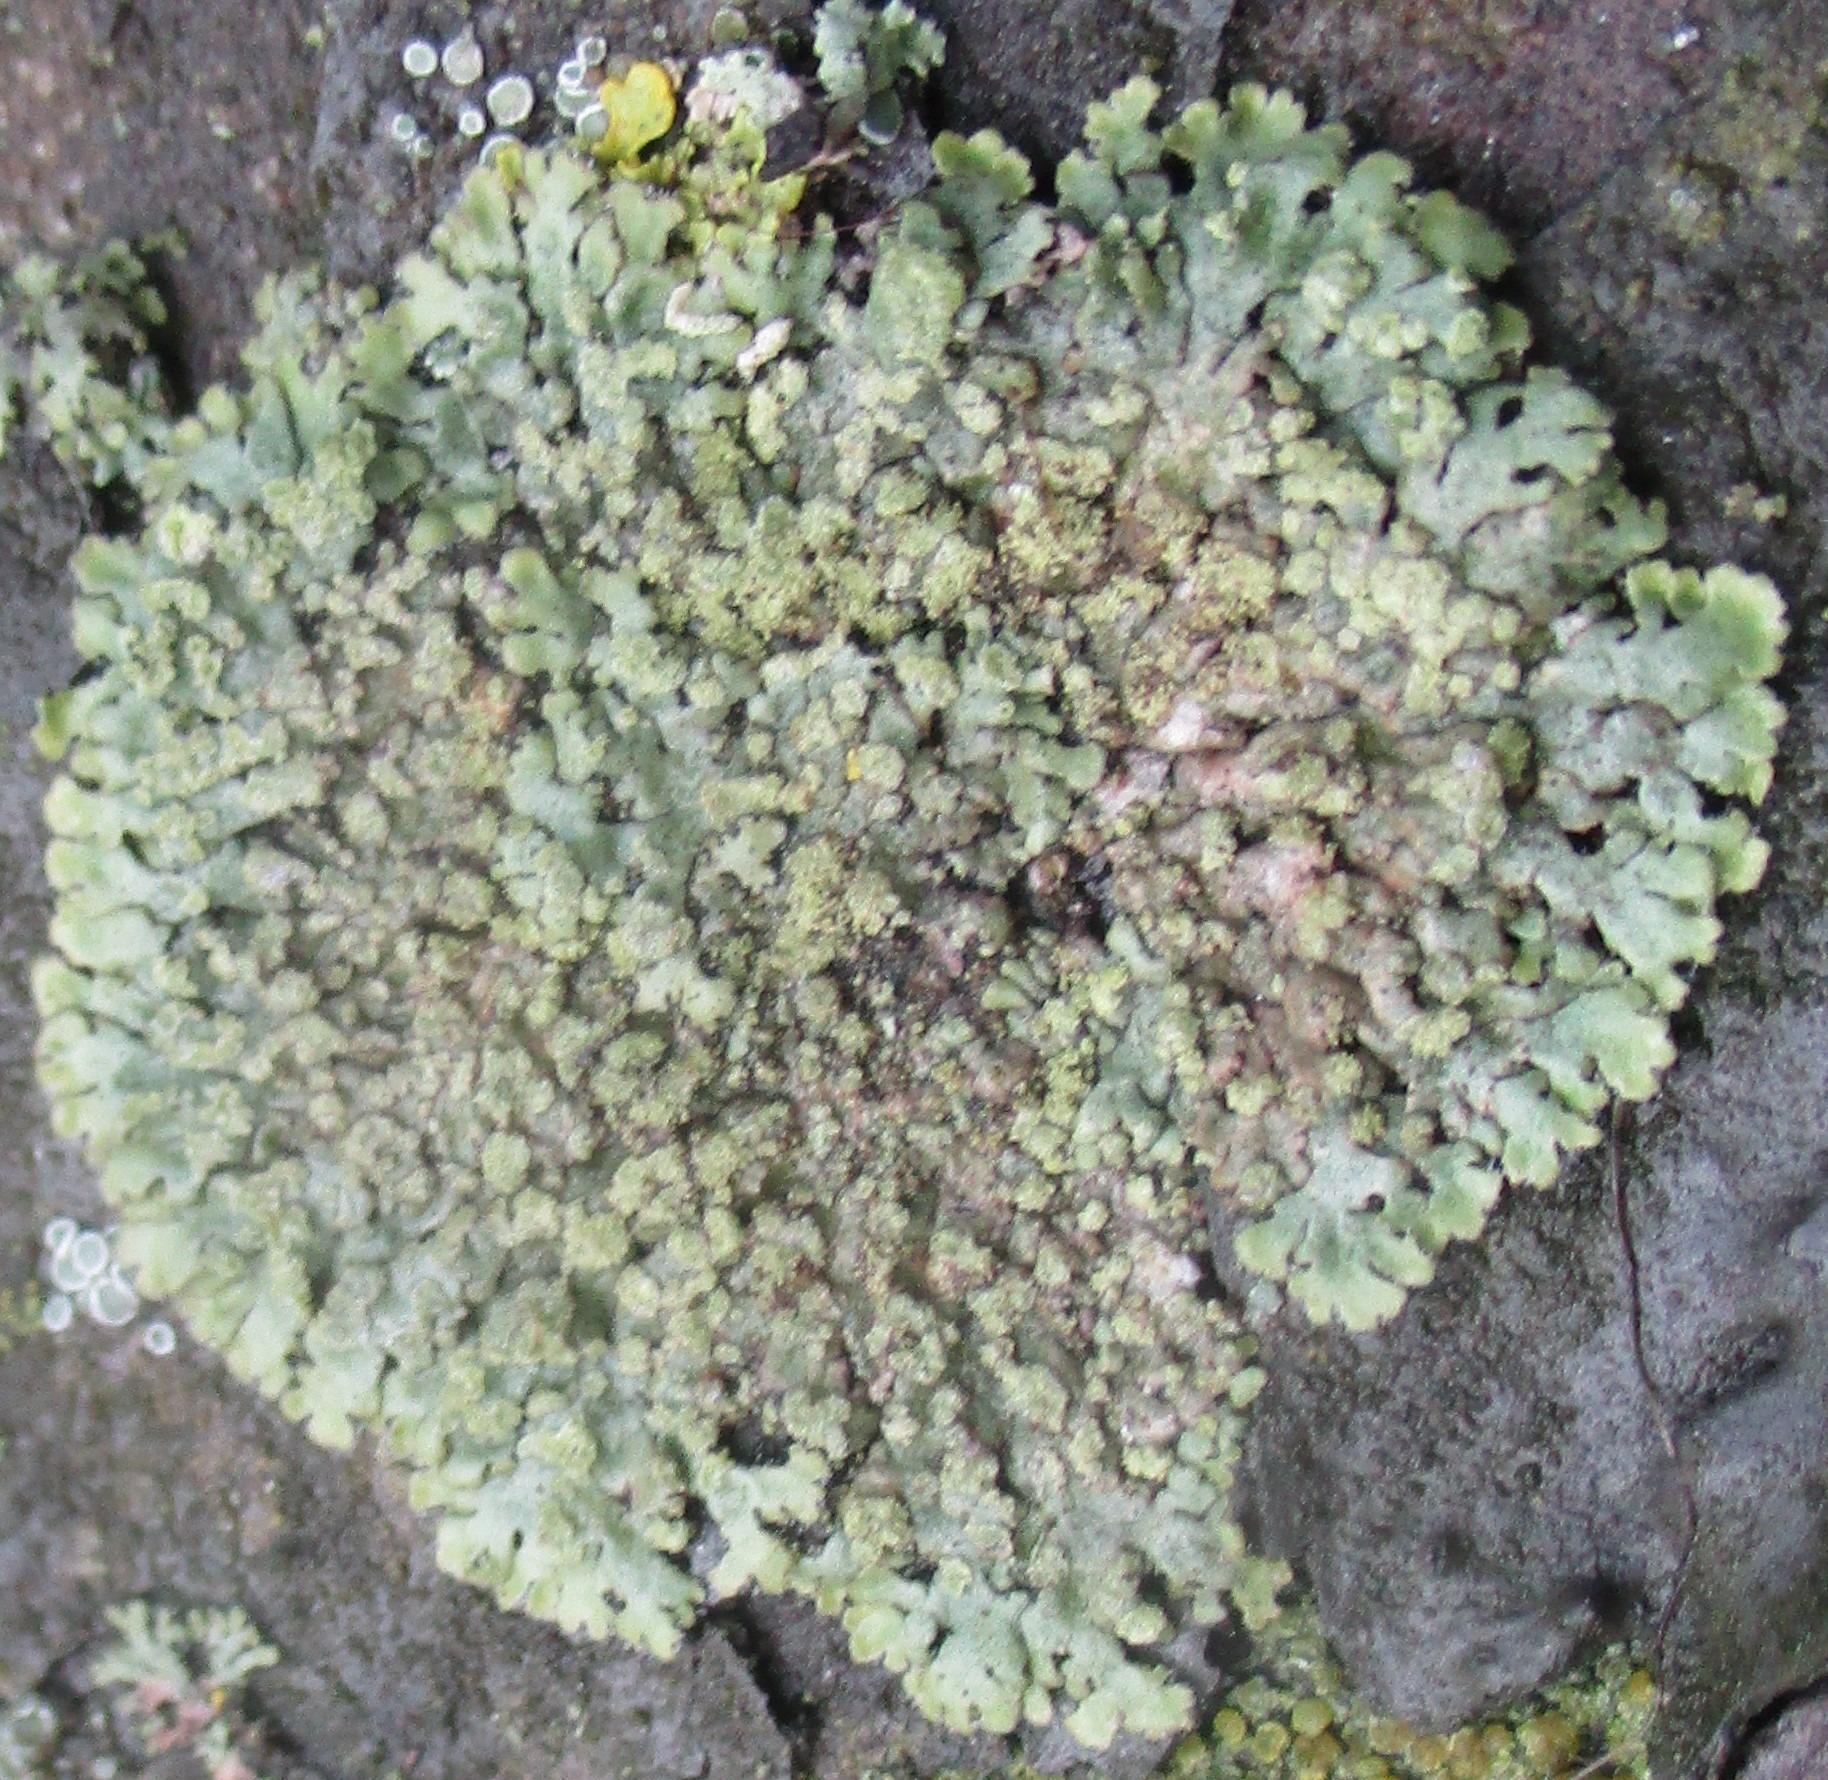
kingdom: Fungi
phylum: Ascomycota
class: Lecanoromycetes
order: Caliciales
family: Physciaceae
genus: Phaeophyscia
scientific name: Phaeophyscia orbicularis
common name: Grågrøn rosetlav
